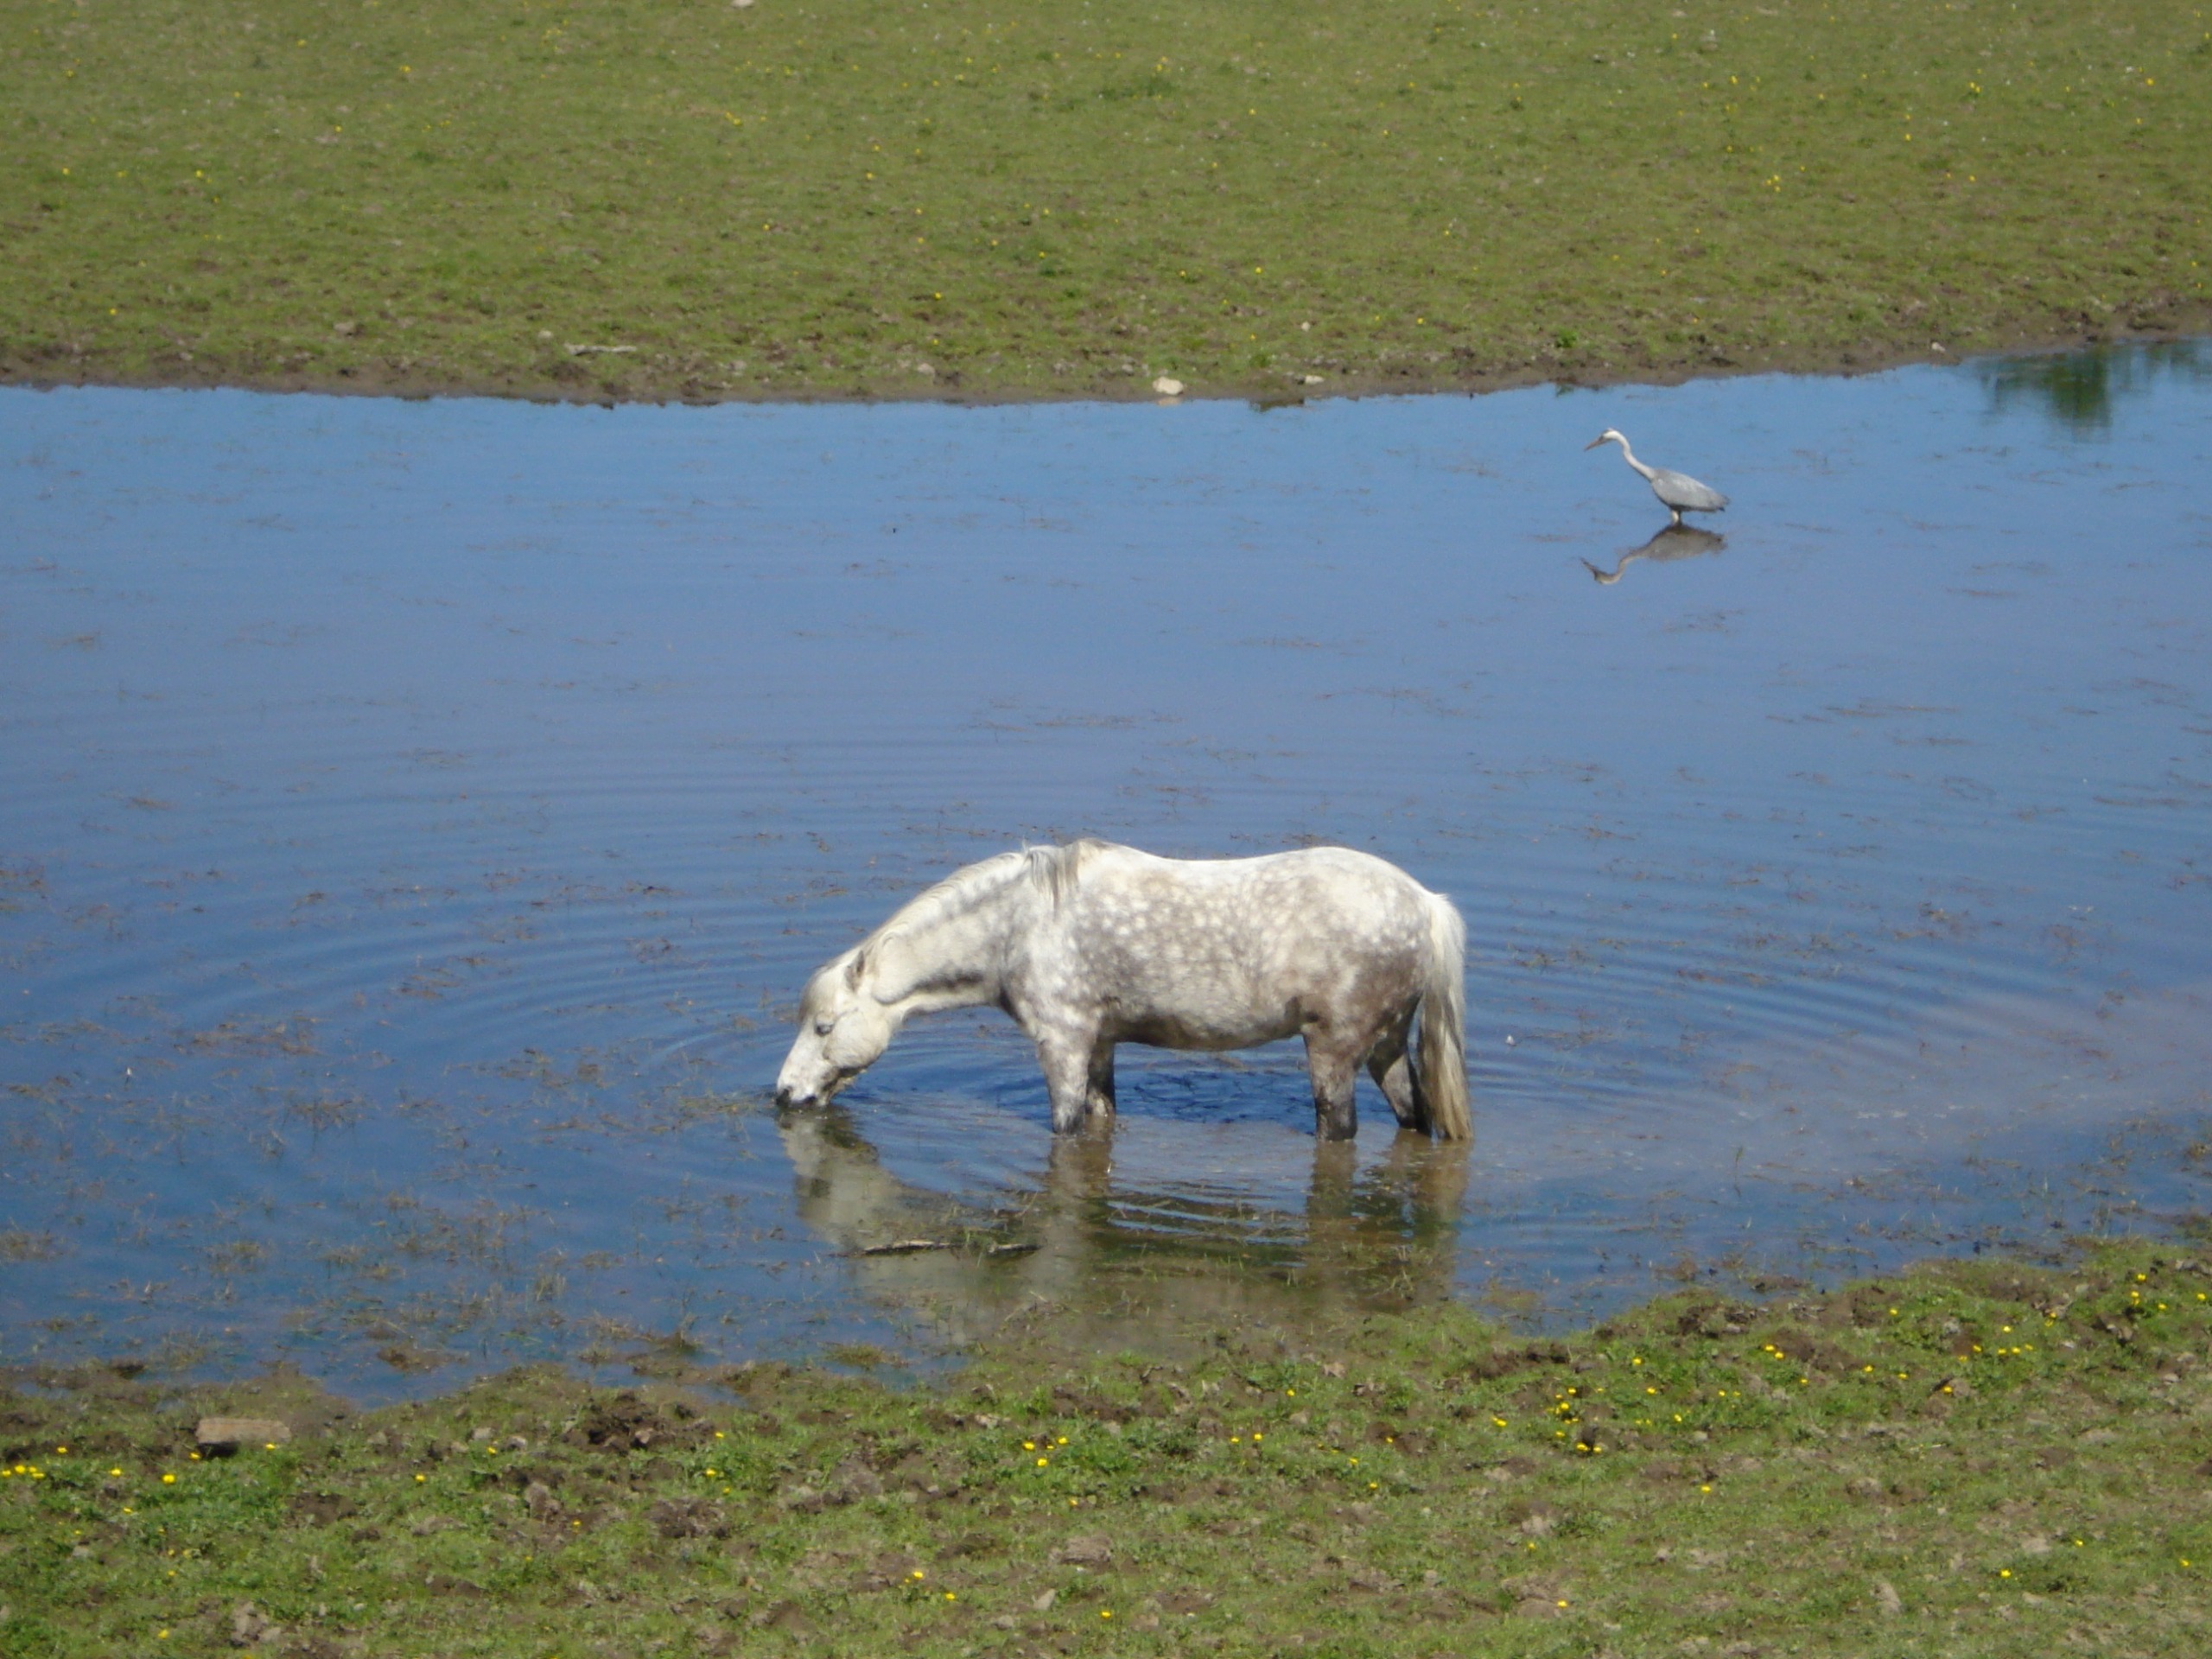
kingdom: Animalia
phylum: Chordata
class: Aves
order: Pelecaniformes
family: Ardeidae
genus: Ardea
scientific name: Ardea cinerea
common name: Fiskehejre
